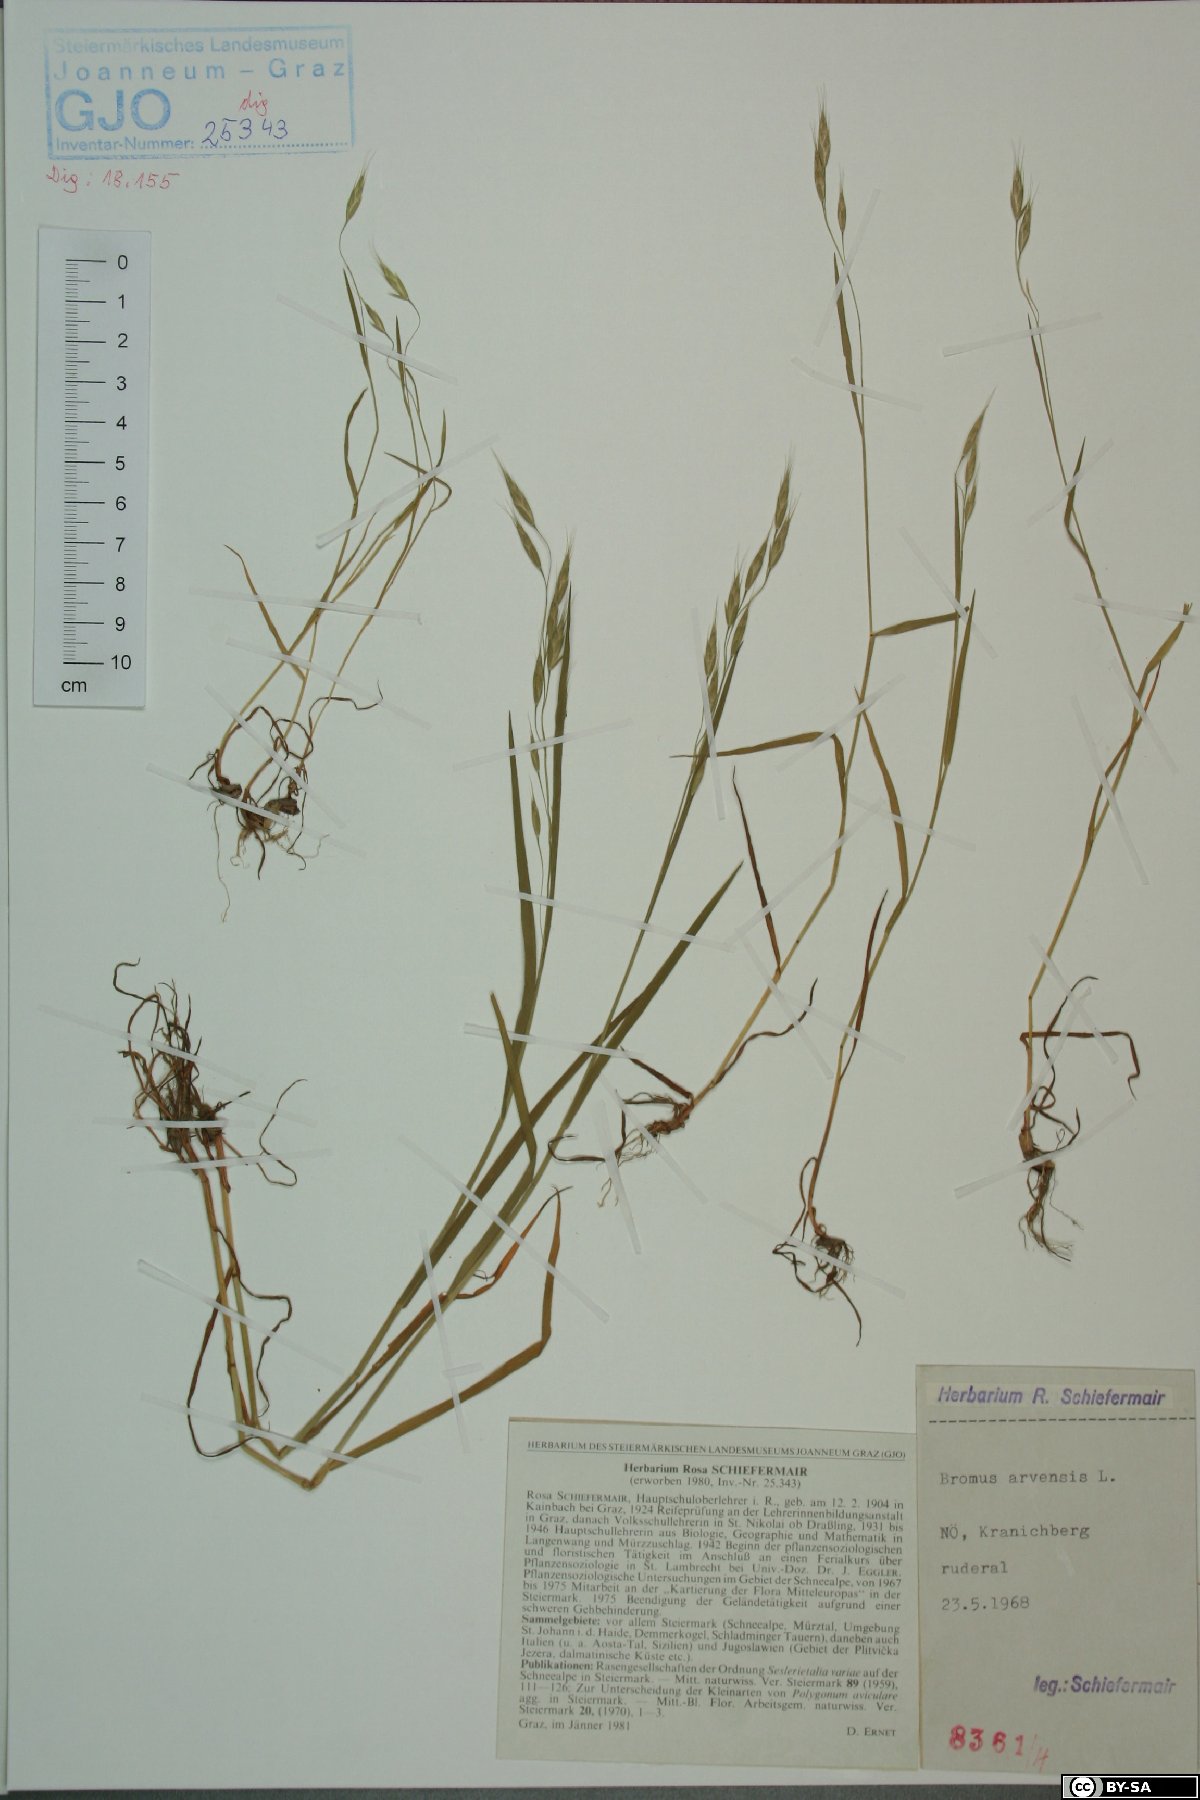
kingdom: Plantae
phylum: Tracheophyta
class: Liliopsida
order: Poales
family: Poaceae
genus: Bromus
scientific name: Bromus arvensis
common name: Field brome
